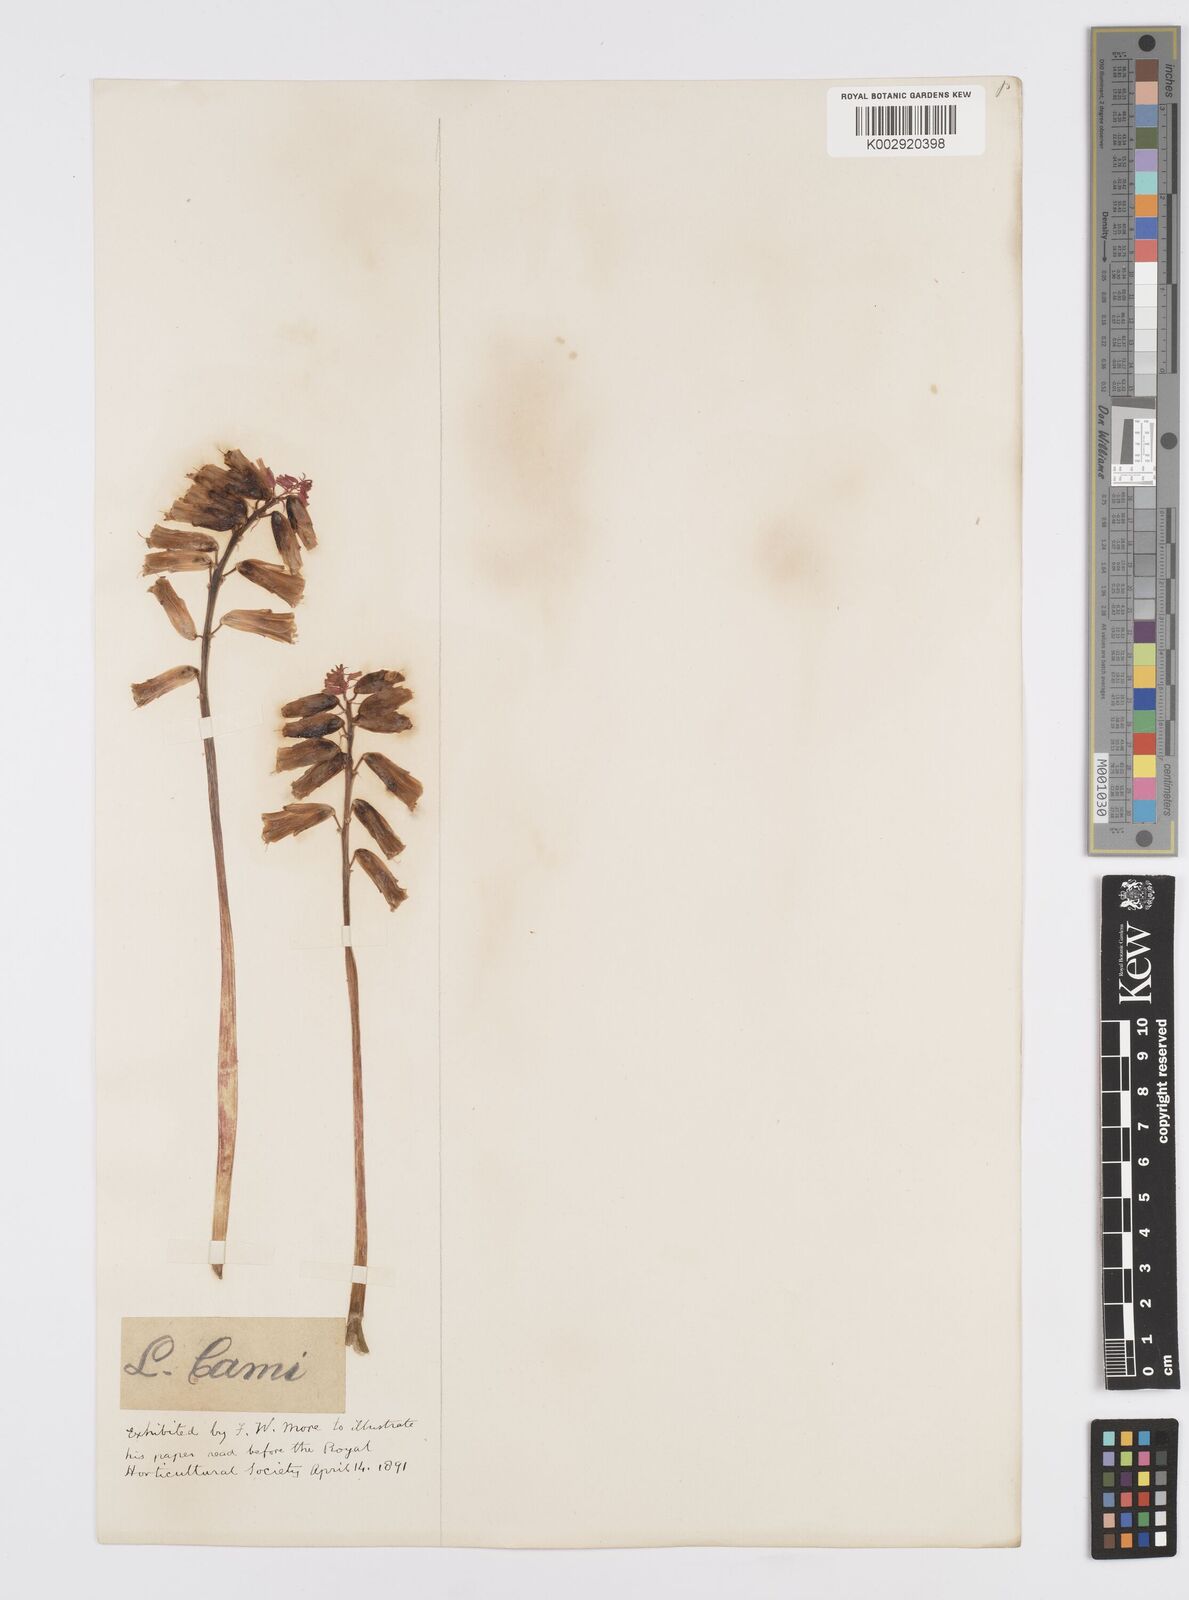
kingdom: Plantae
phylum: Tracheophyta
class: Liliopsida
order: Asparagales
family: Asparagaceae
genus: Lachenalia
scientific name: Lachenalia
